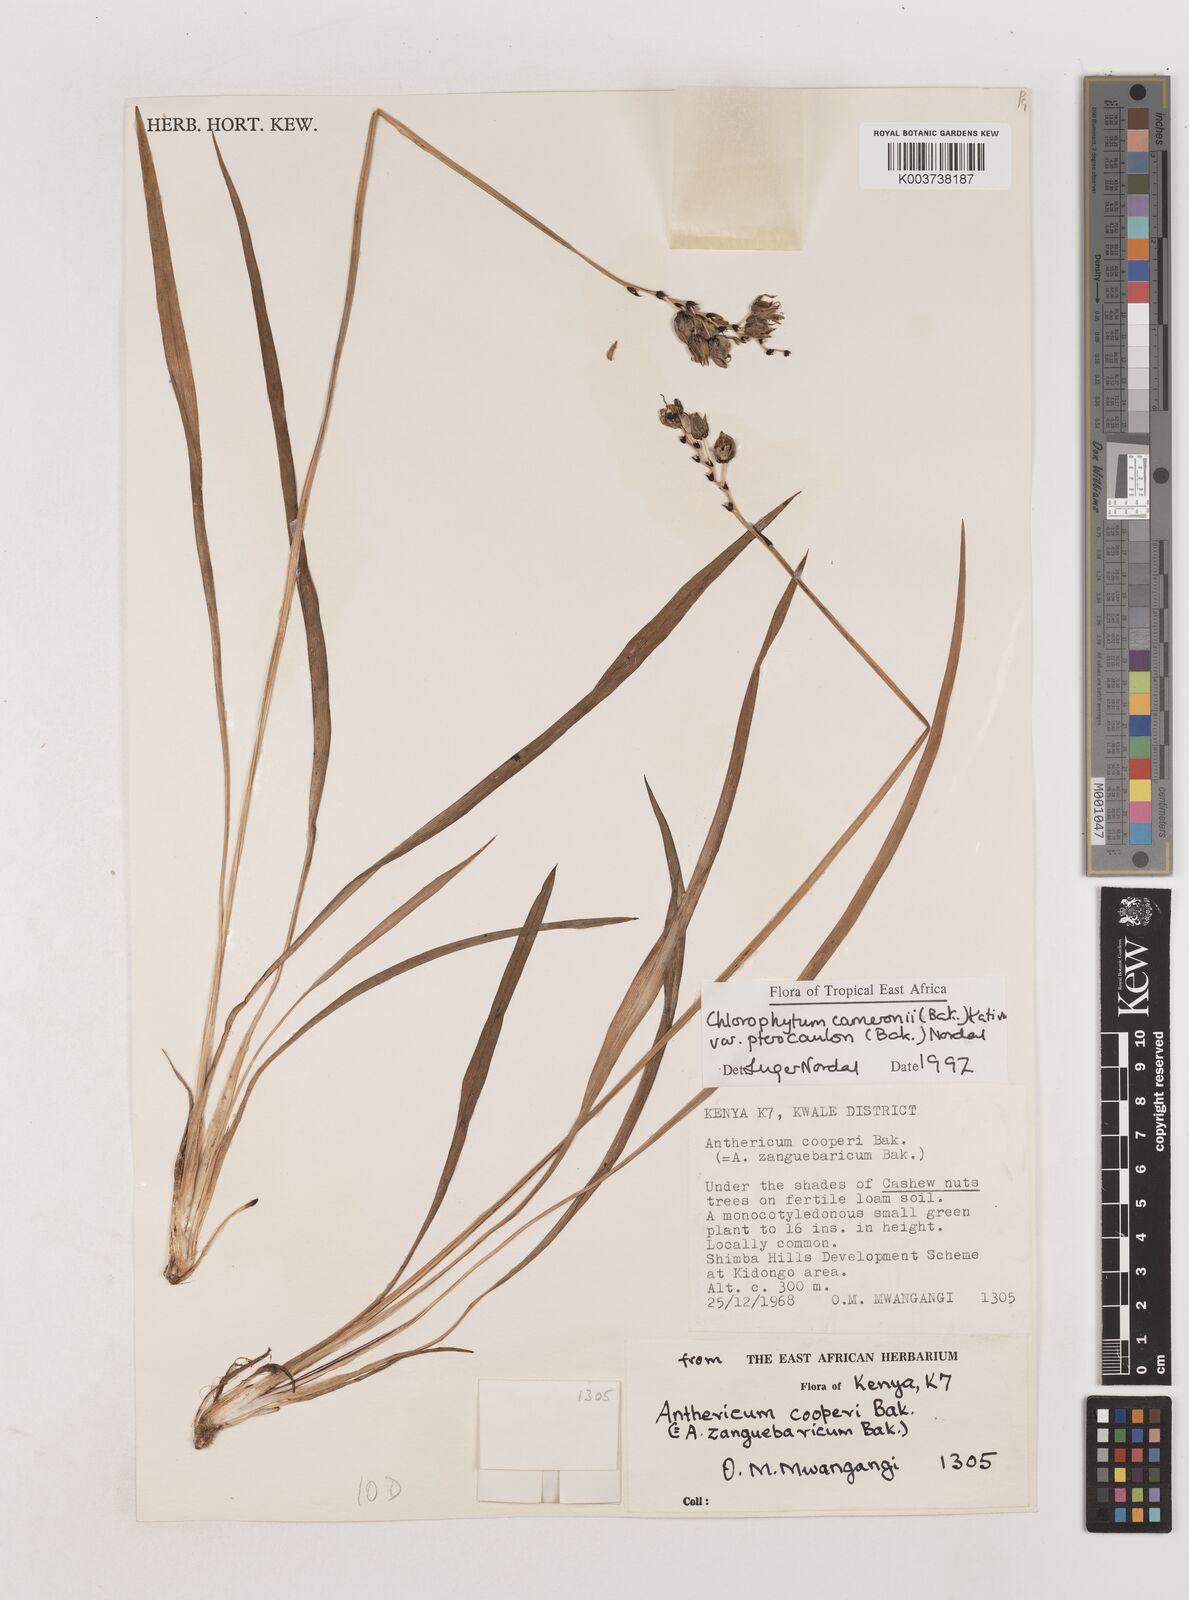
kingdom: Plantae
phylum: Tracheophyta
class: Liliopsida
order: Asparagales
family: Asparagaceae
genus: Chlorophytum
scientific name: Chlorophytum cameronii
